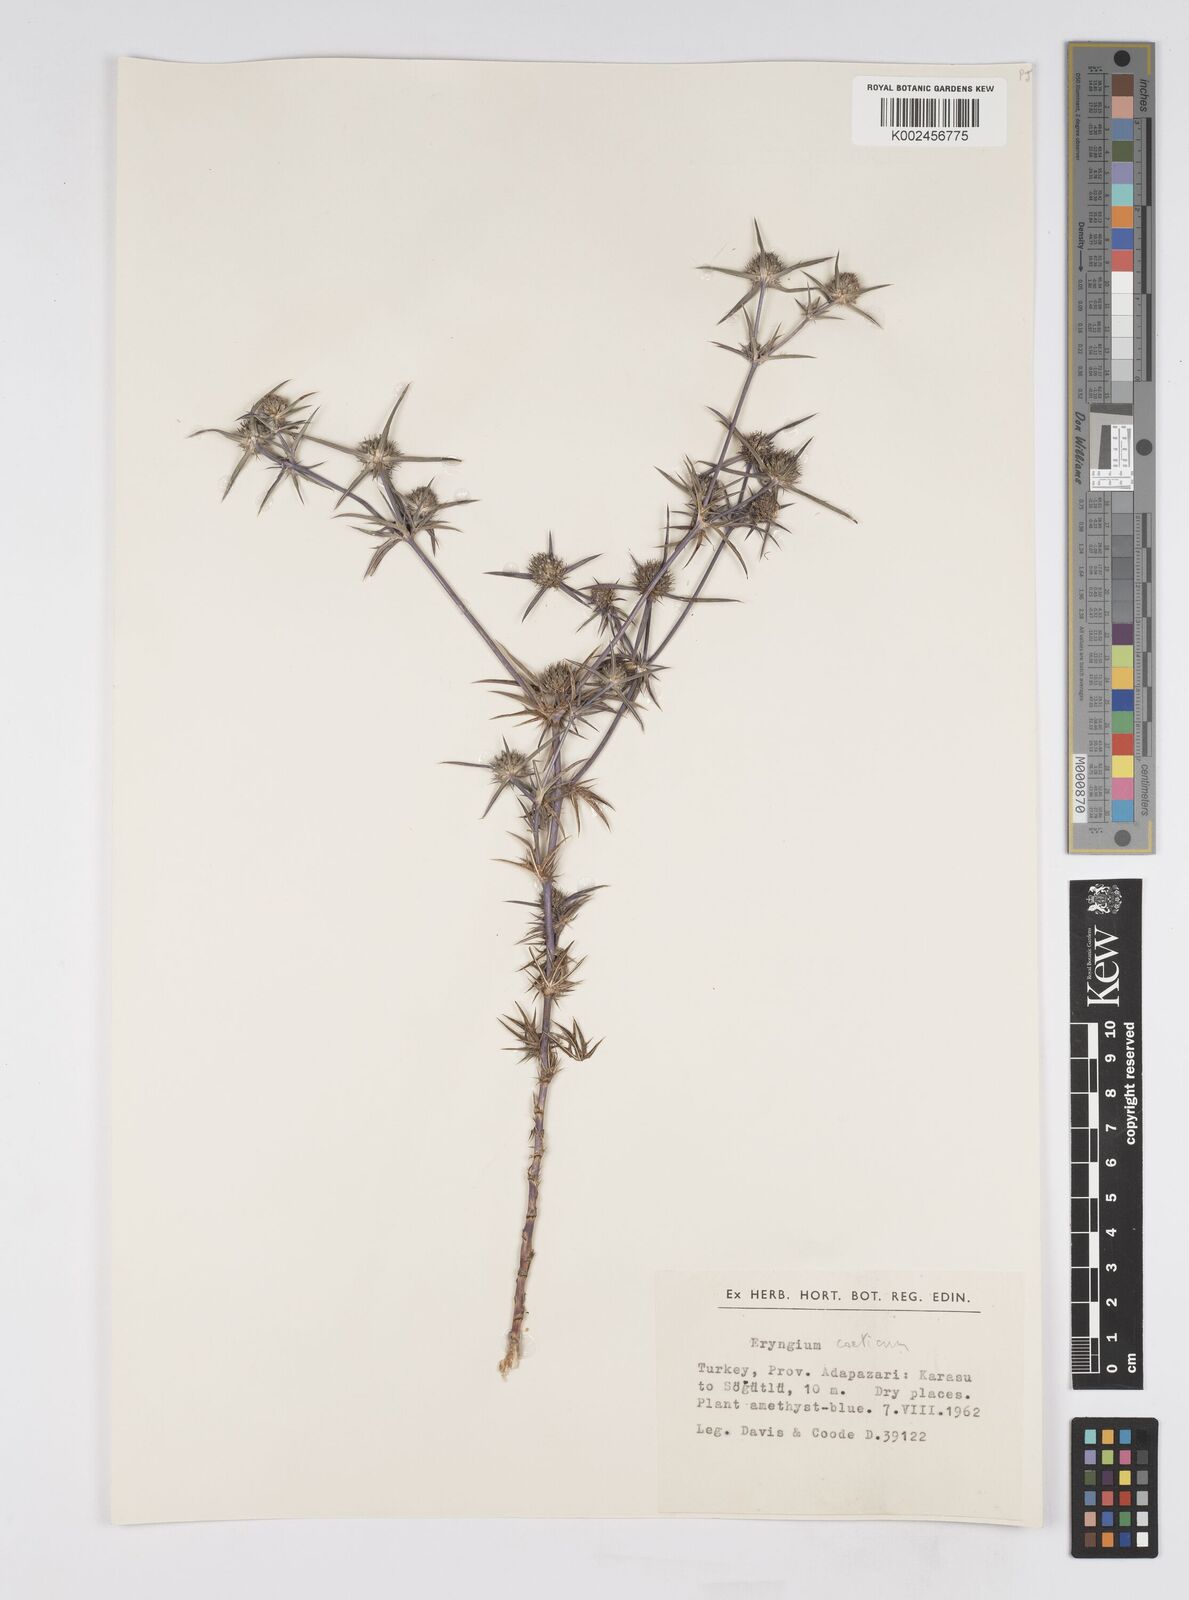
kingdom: Plantae
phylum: Tracheophyta
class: Magnoliopsida
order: Apiales
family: Apiaceae
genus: Eryngium
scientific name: Eryngium creticum
